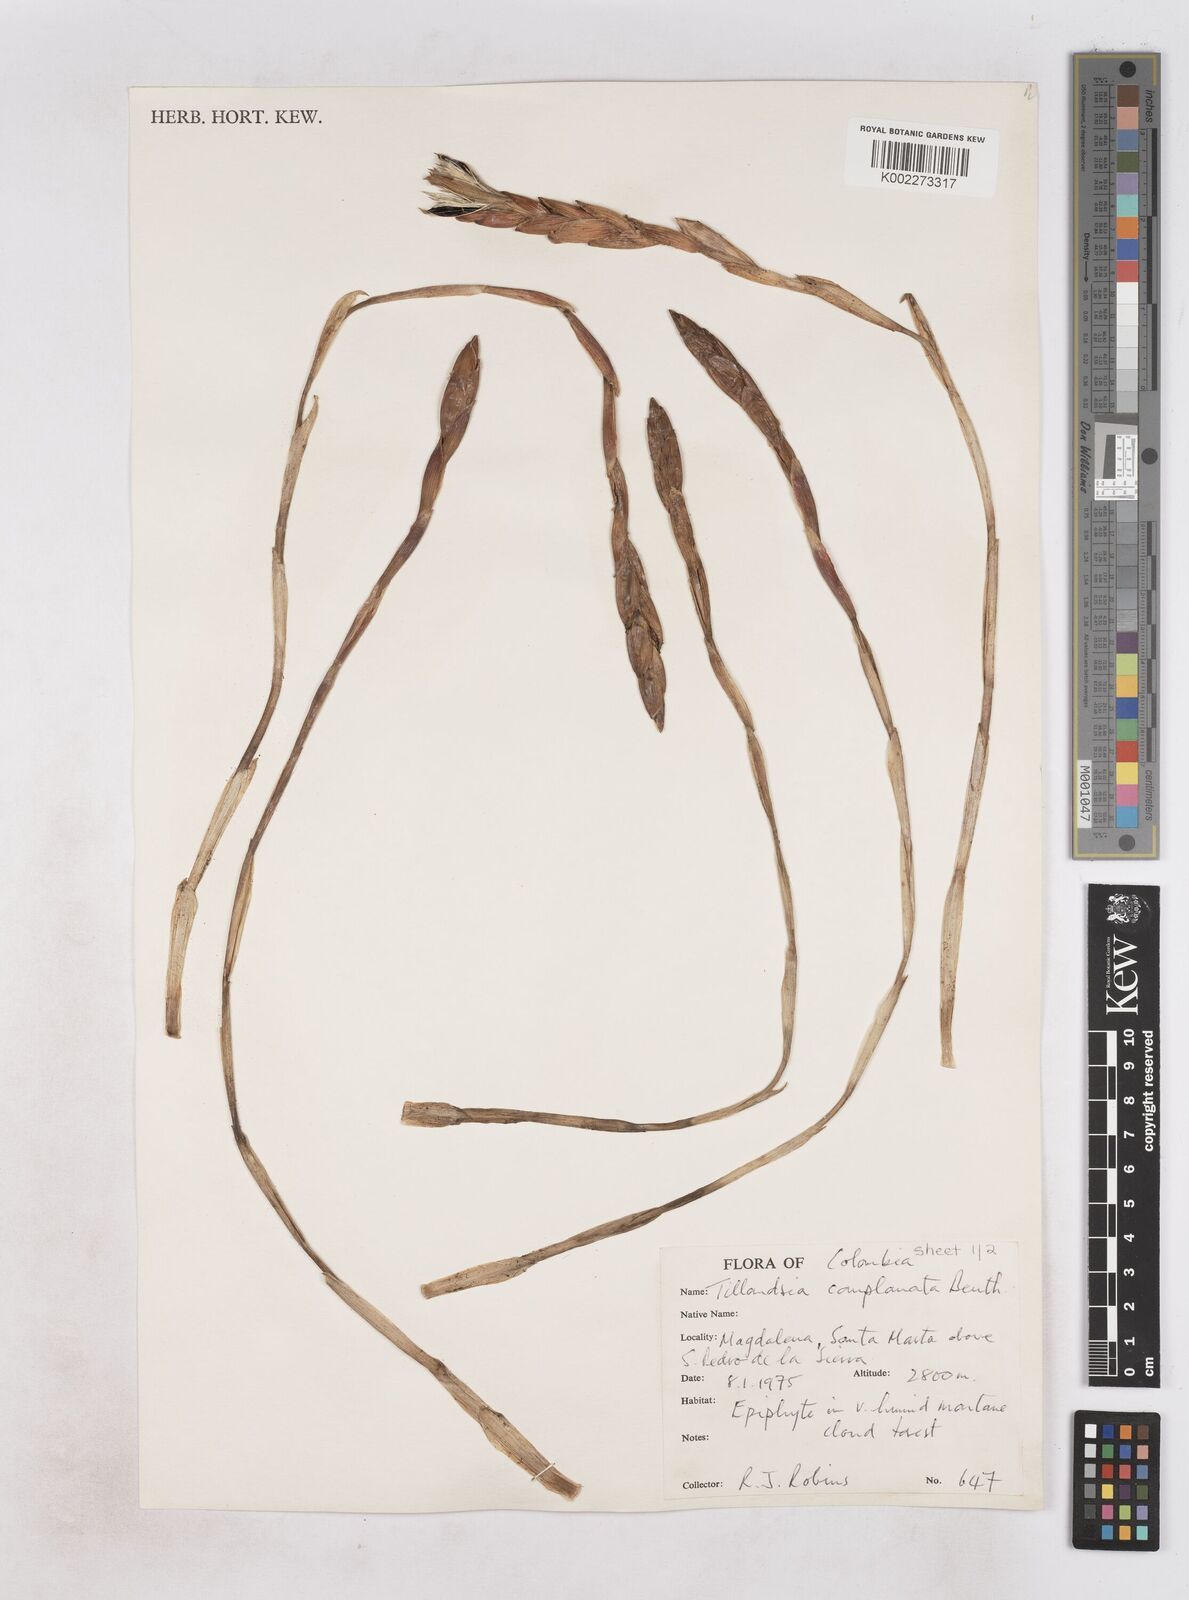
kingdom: Plantae
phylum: Tracheophyta
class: Liliopsida
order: Poales
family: Bromeliaceae
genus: Tillandsia
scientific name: Tillandsia complanata
